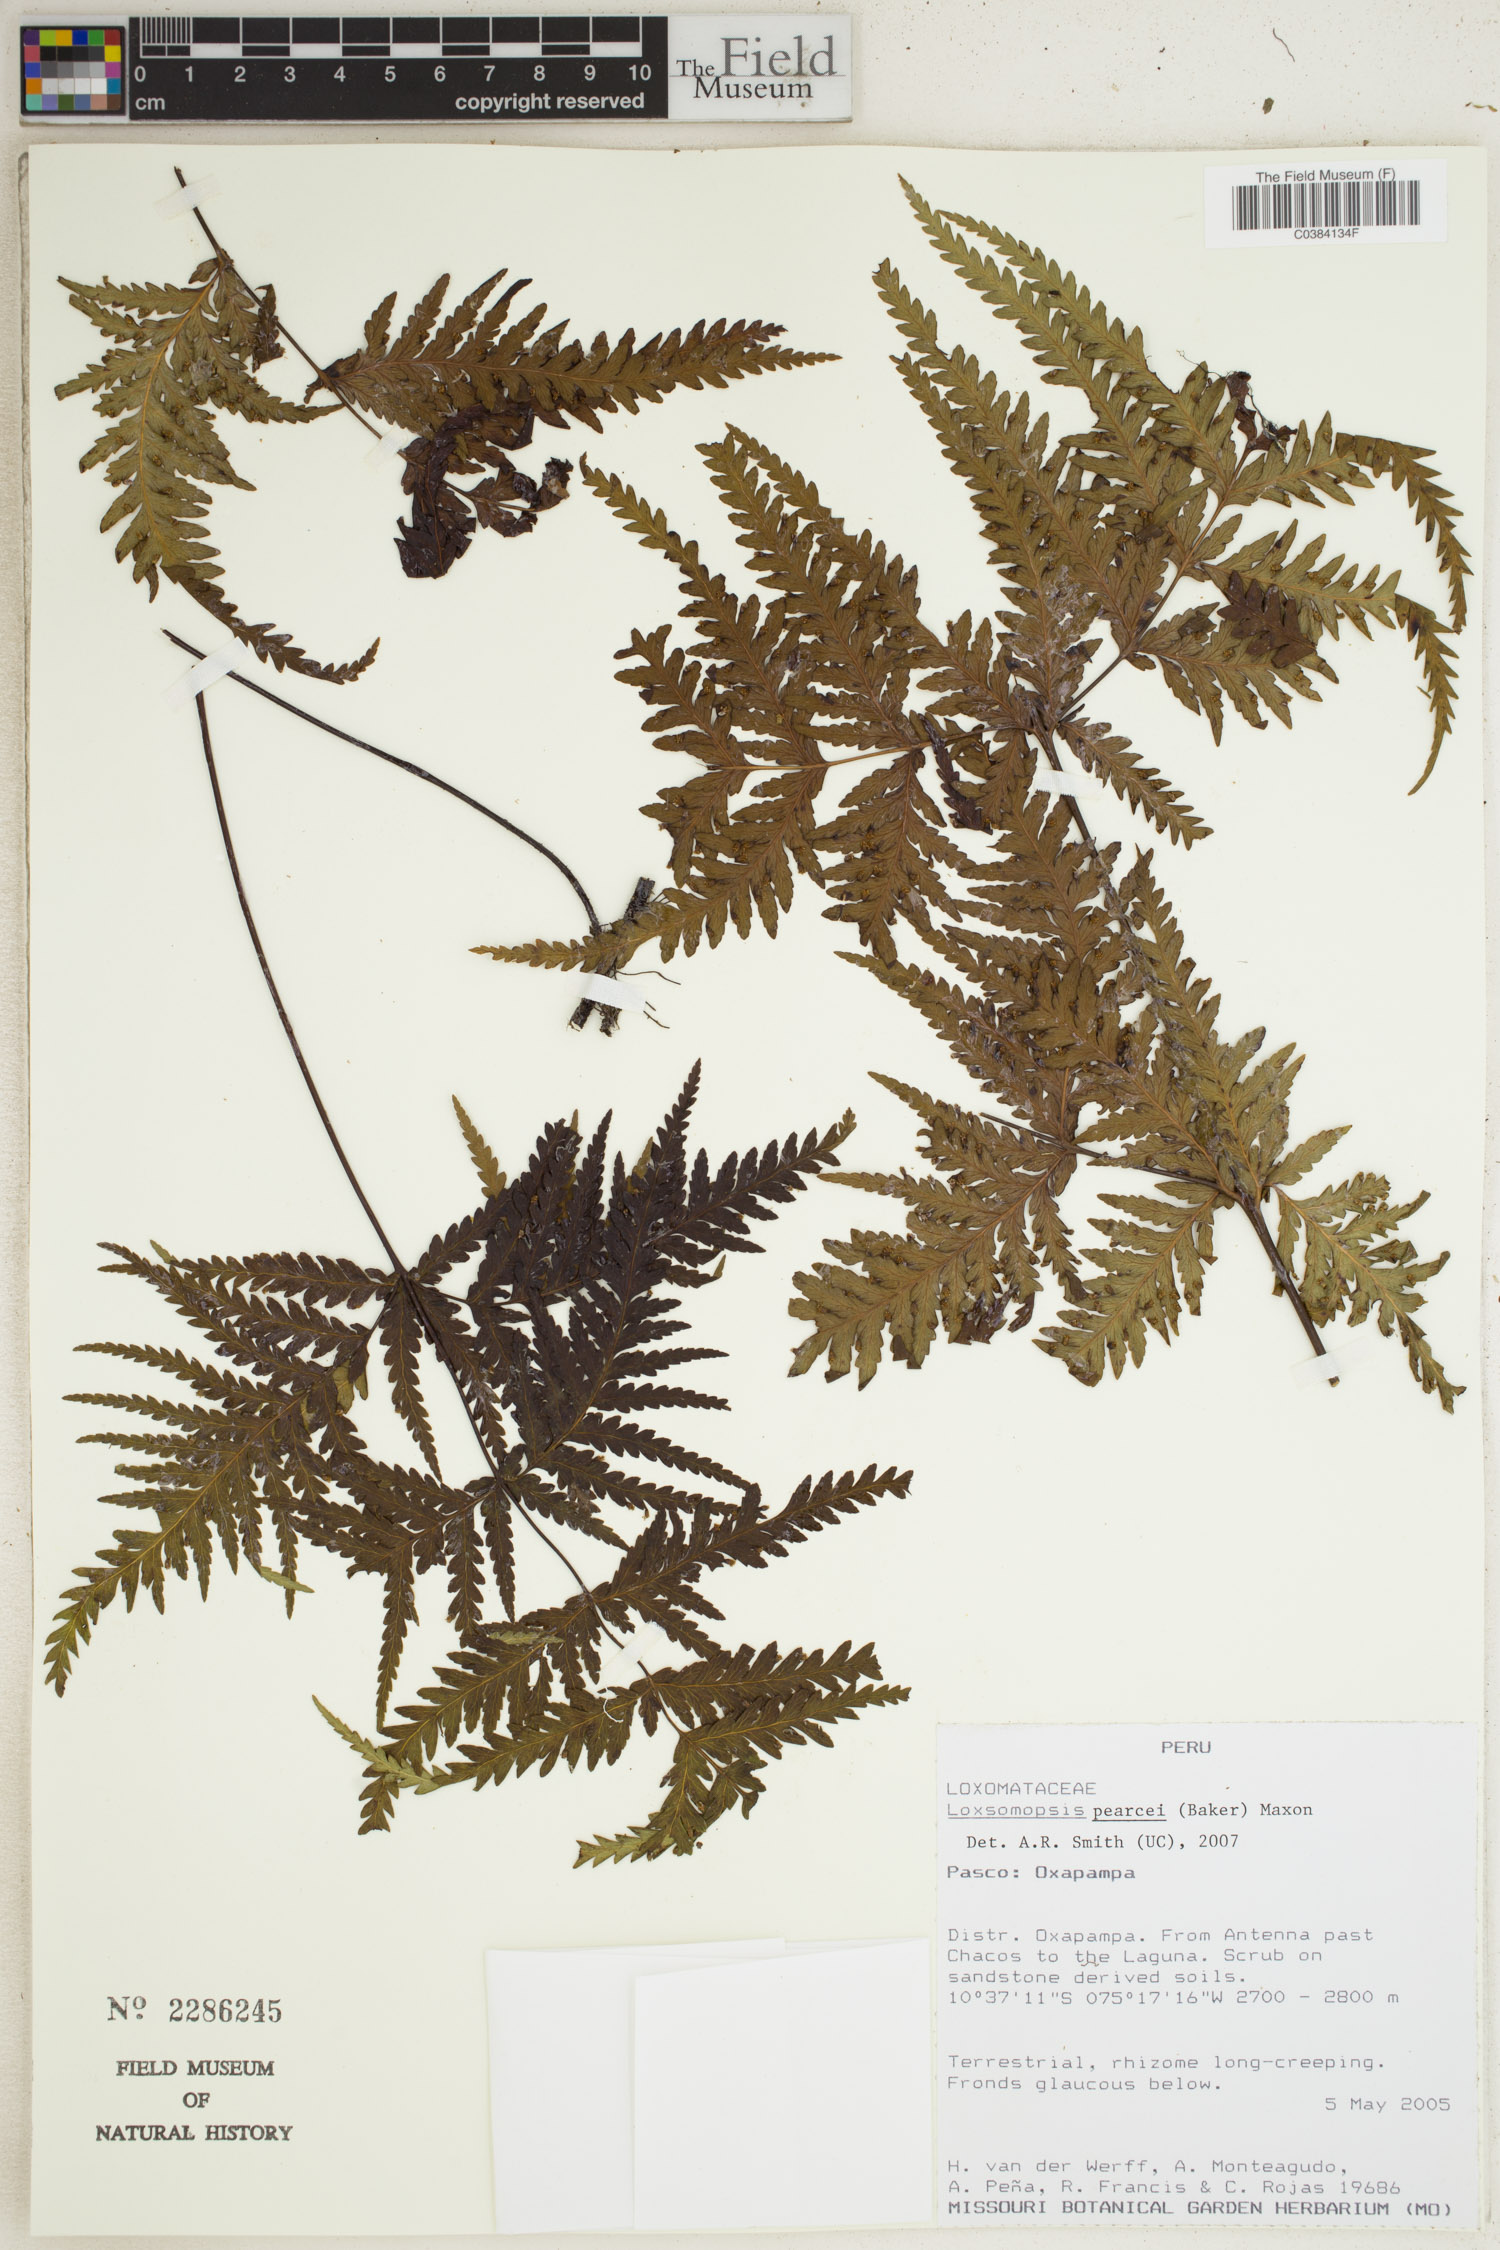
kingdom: Plantae
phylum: Tracheophyta
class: Polypodiopsida
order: Cyatheales
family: Loxsomataceae
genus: Loxsomopsis
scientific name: Loxsomopsis pearcei
